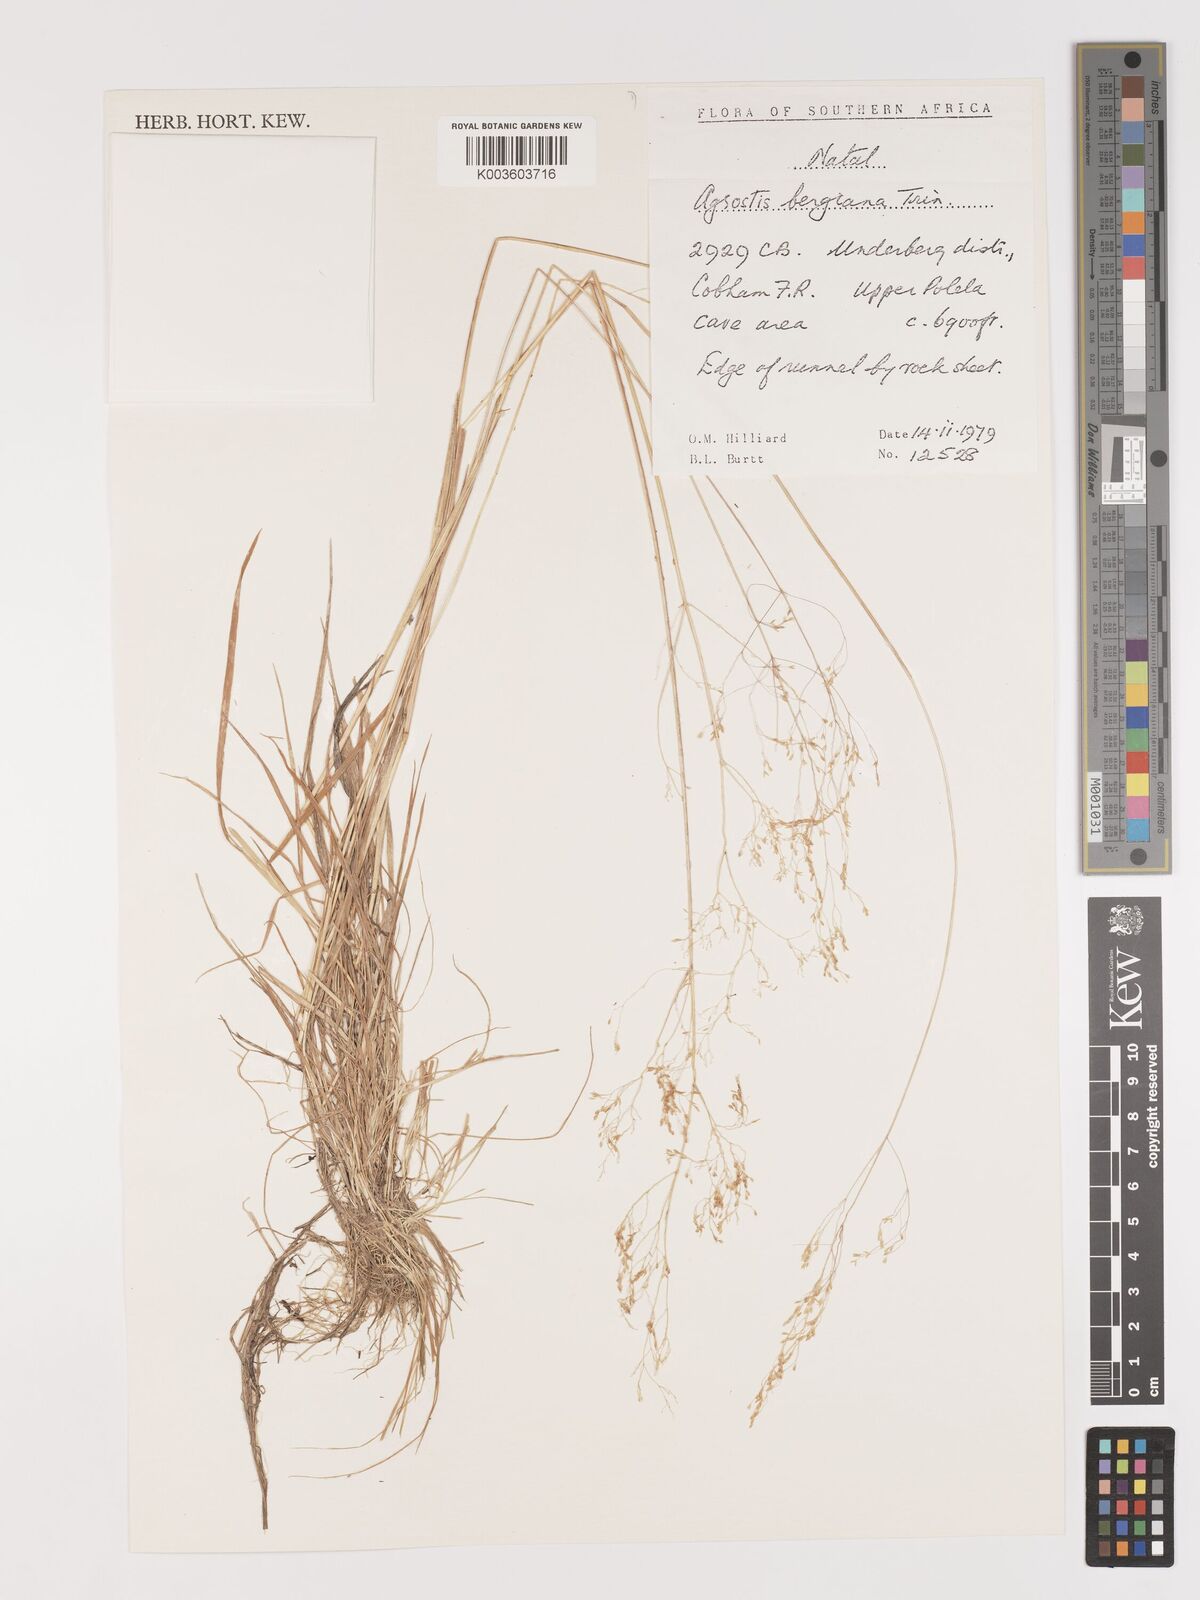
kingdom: Plantae
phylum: Tracheophyta
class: Liliopsida
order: Poales
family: Poaceae
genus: Agrostis
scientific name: Agrostis bergiana
